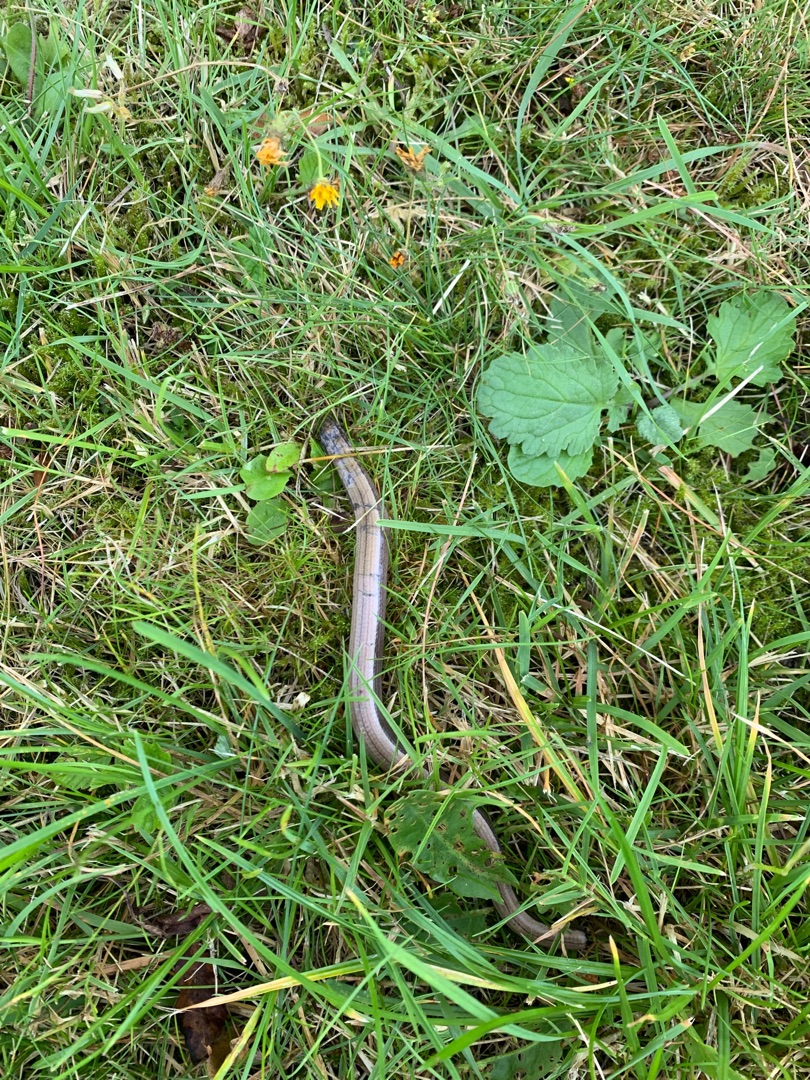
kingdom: Animalia
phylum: Chordata
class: Squamata
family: Anguidae
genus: Anguis
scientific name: Anguis fragilis
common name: Stålorm
